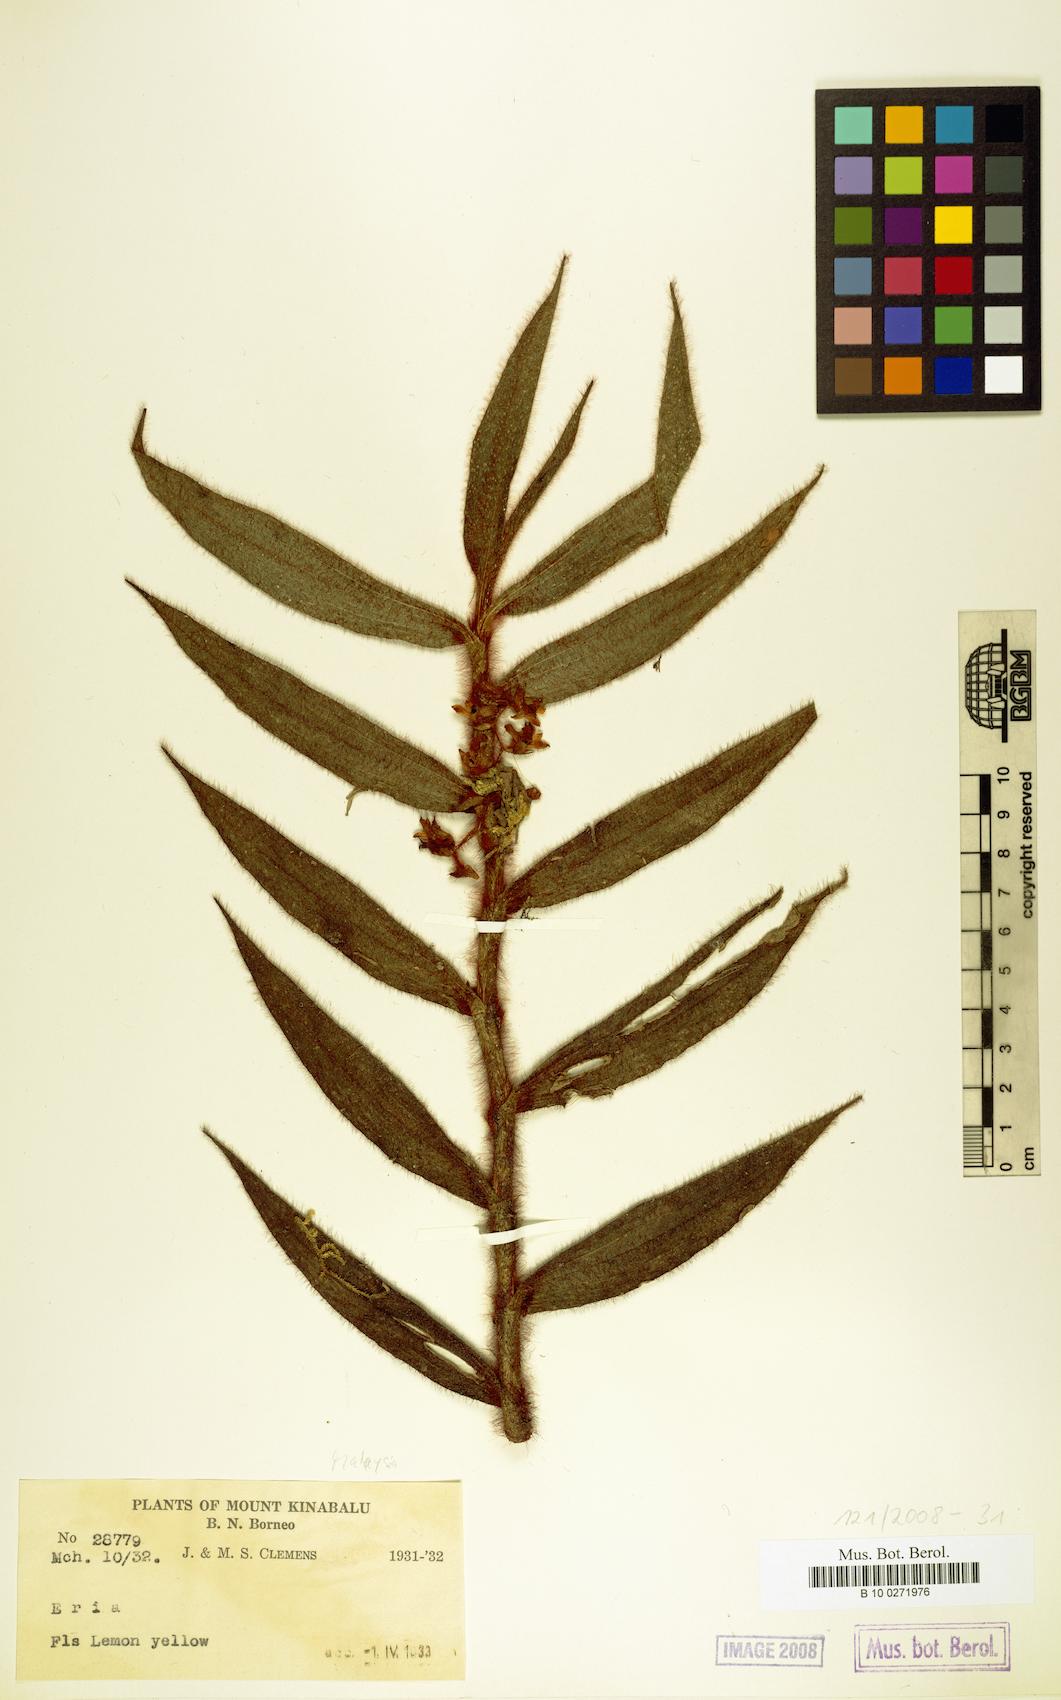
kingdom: Plantae
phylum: Tracheophyta
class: Liliopsida
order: Asparagales
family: Orchidaceae
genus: Eria
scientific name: Eria
